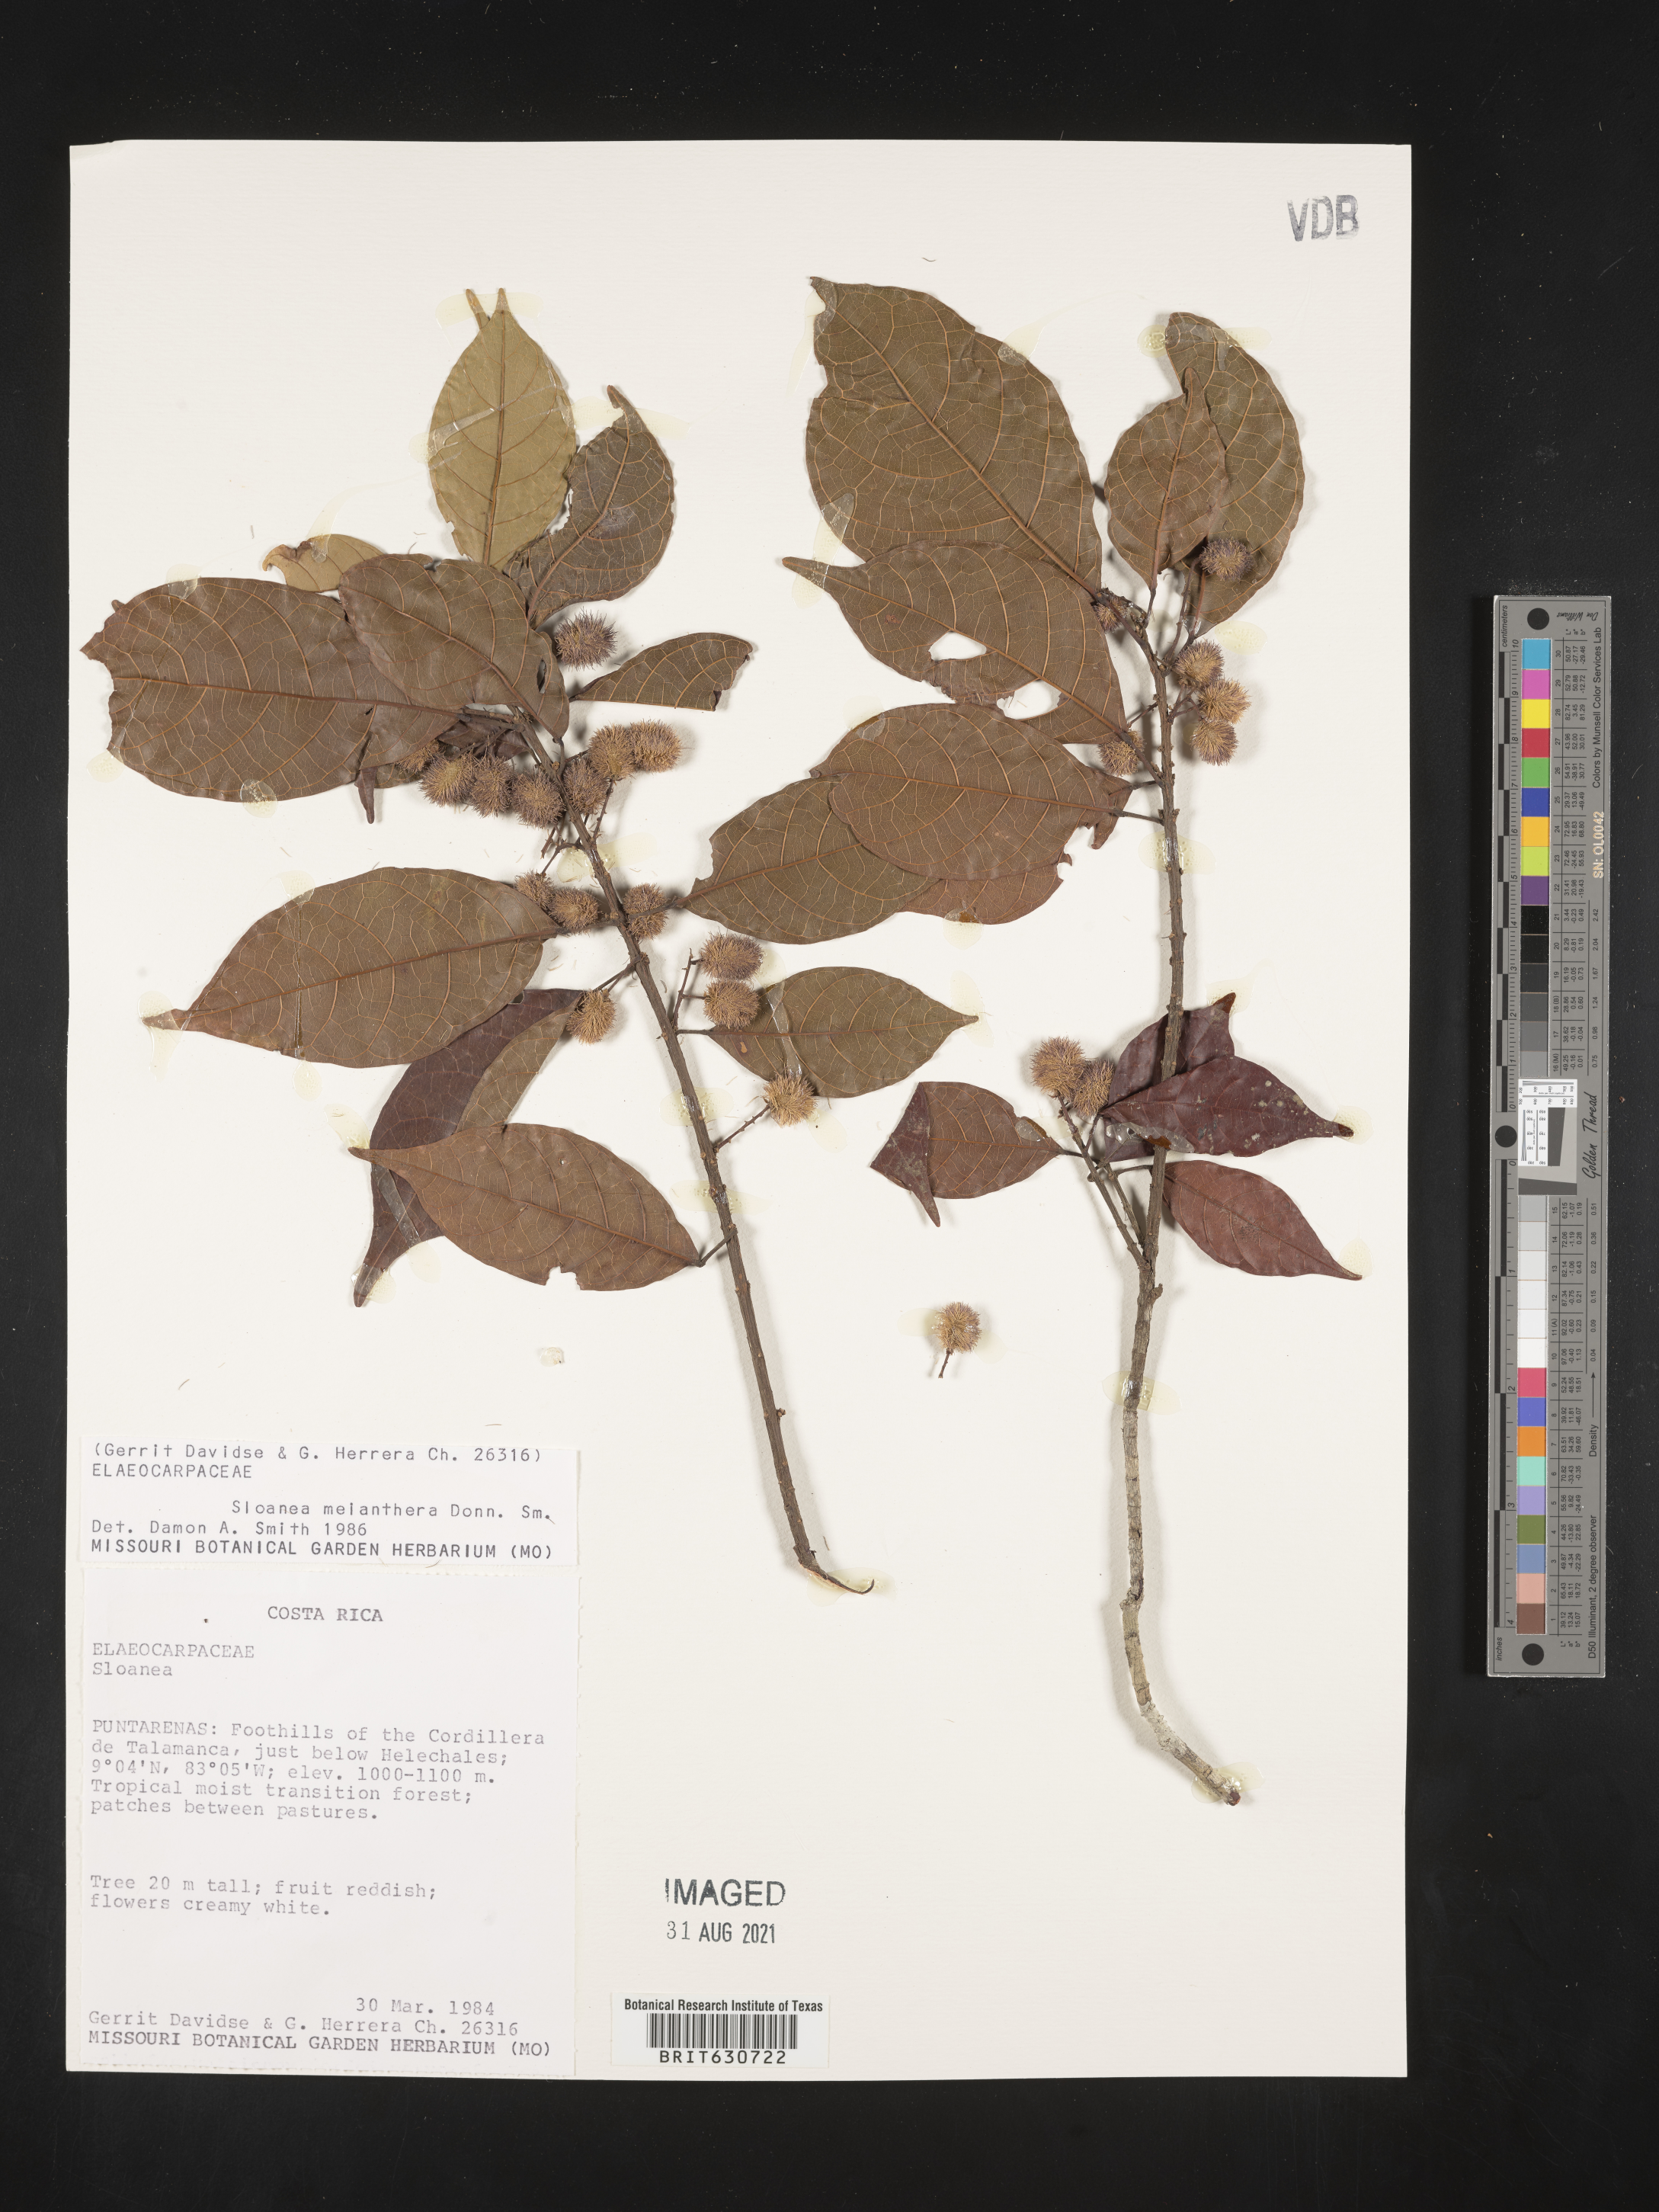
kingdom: Plantae
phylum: Tracheophyta
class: Magnoliopsida
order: Oxalidales
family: Elaeocarpaceae
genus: Sloanea
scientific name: Sloanea
